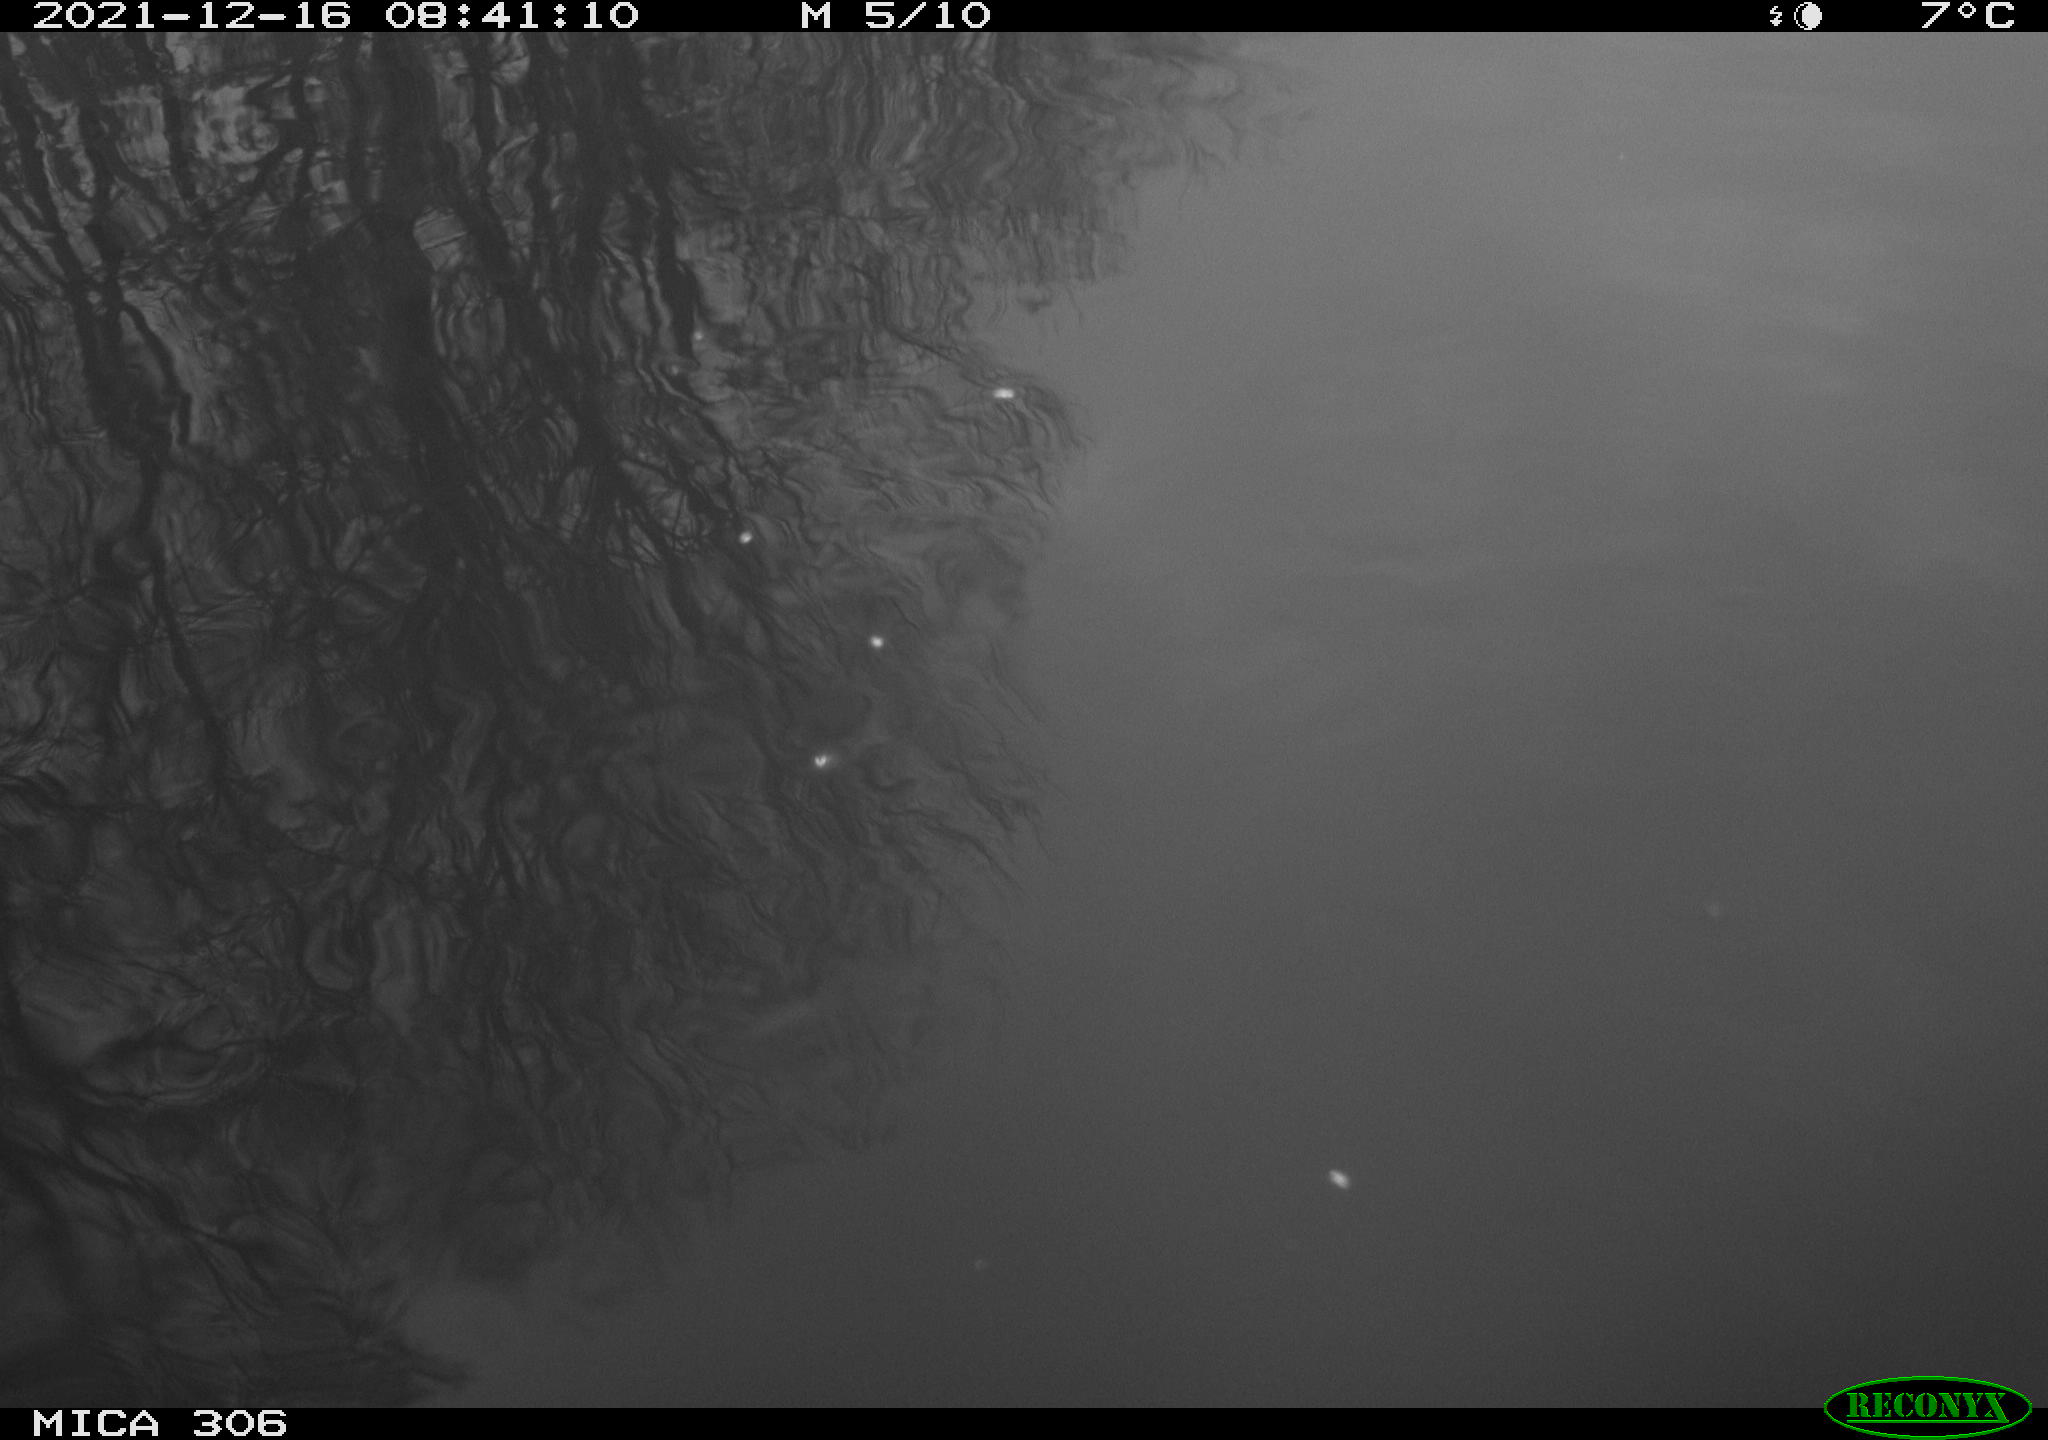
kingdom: Animalia
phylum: Chordata
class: Aves
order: Gruiformes
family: Rallidae
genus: Gallinula
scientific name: Gallinula chloropus
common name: Common moorhen
